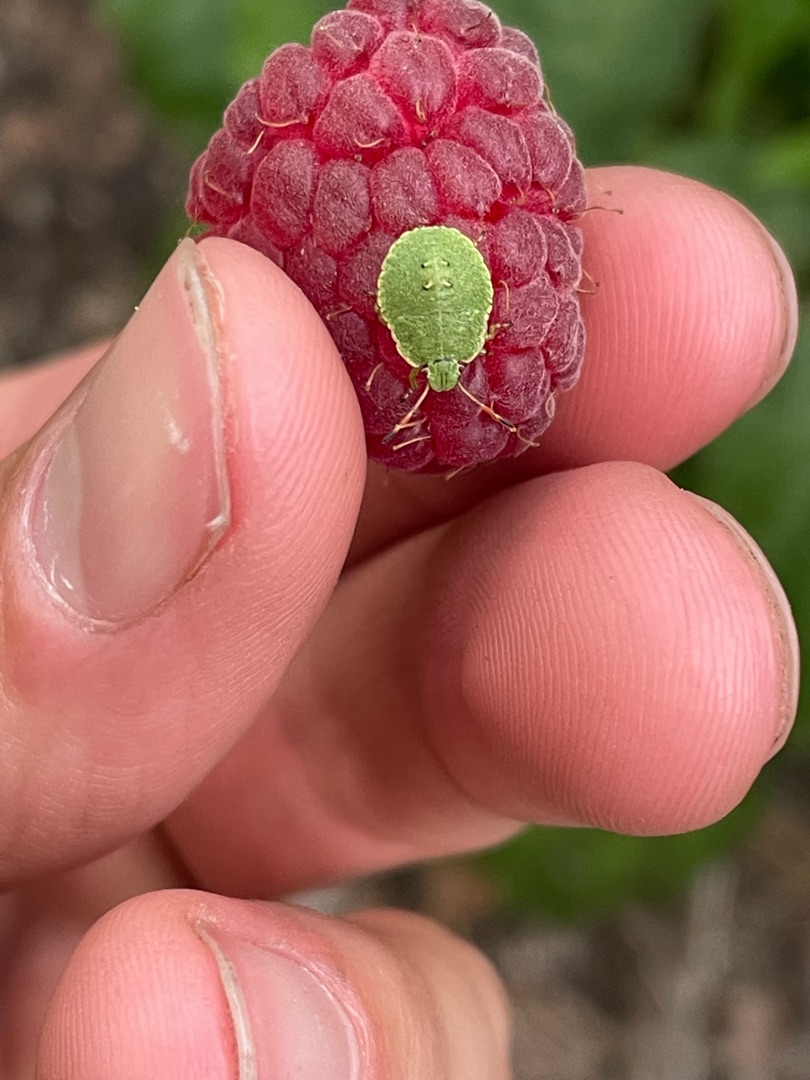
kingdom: Animalia
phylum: Arthropoda
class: Insecta
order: Hemiptera
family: Pentatomidae
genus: Palomena
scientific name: Palomena prasina
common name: Grøn bredtæge
